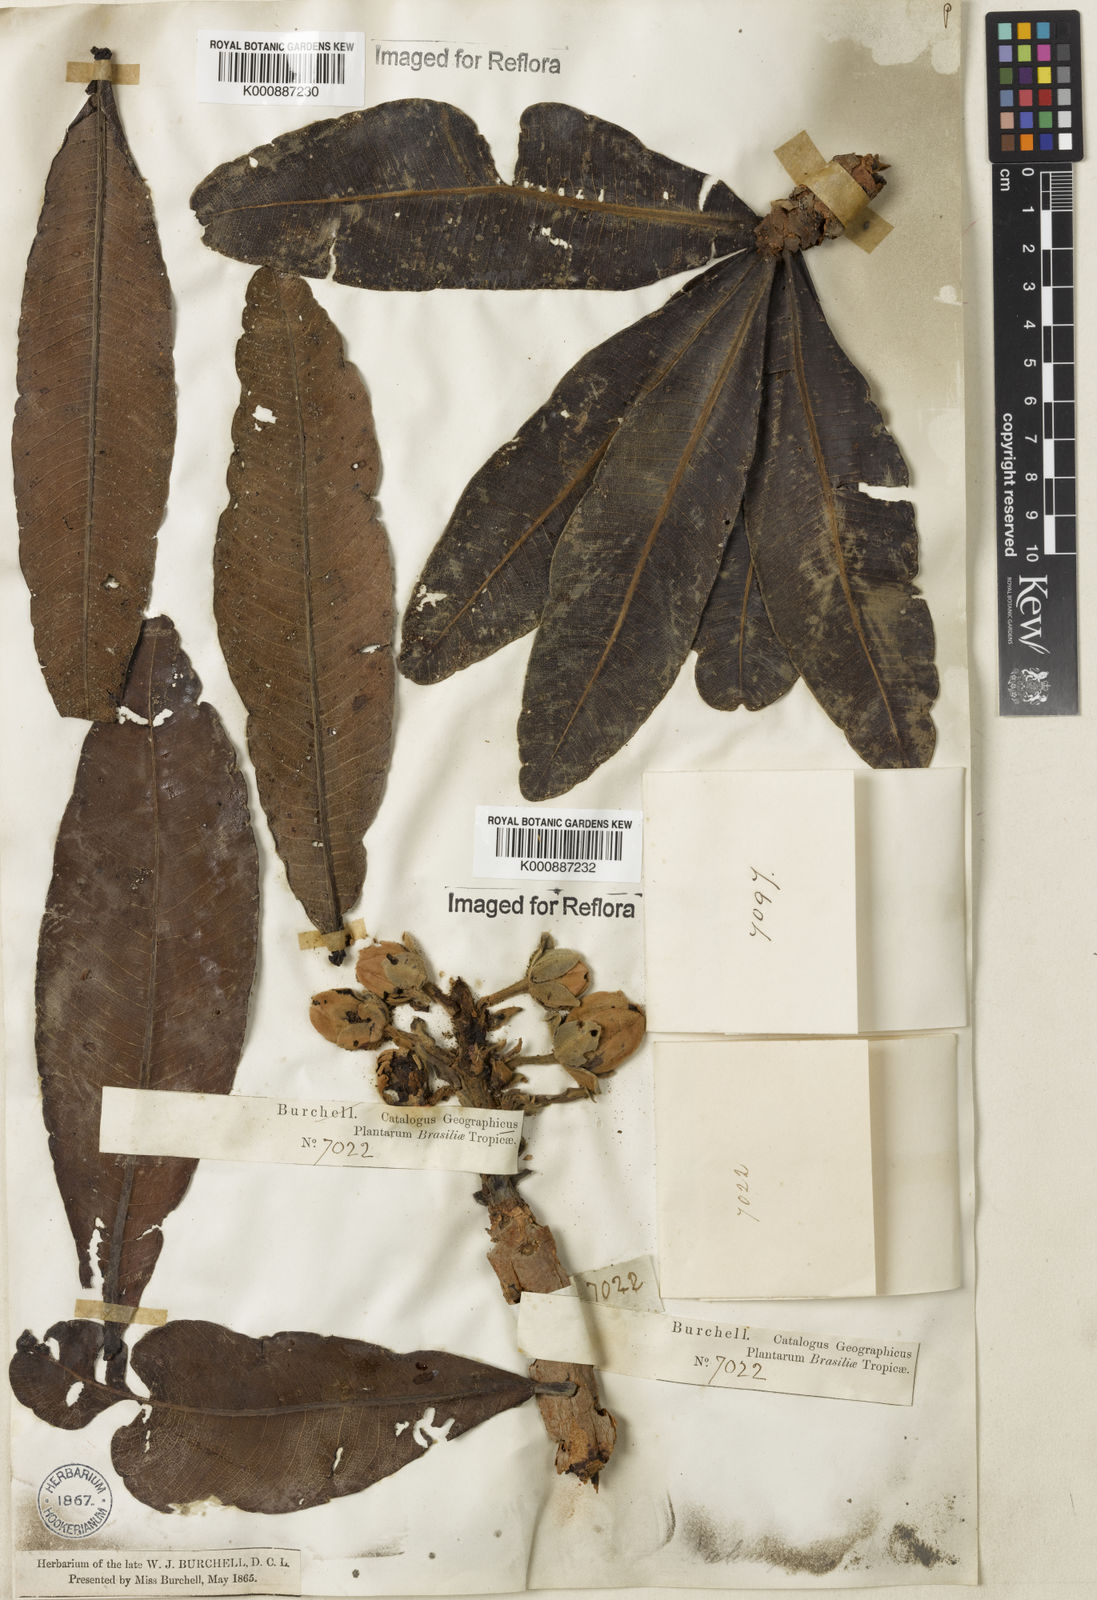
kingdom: Plantae
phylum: Tracheophyta
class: Magnoliopsida
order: Malpighiales
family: Calophyllaceae
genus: Kielmeyera
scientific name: Kielmeyera speciosa
